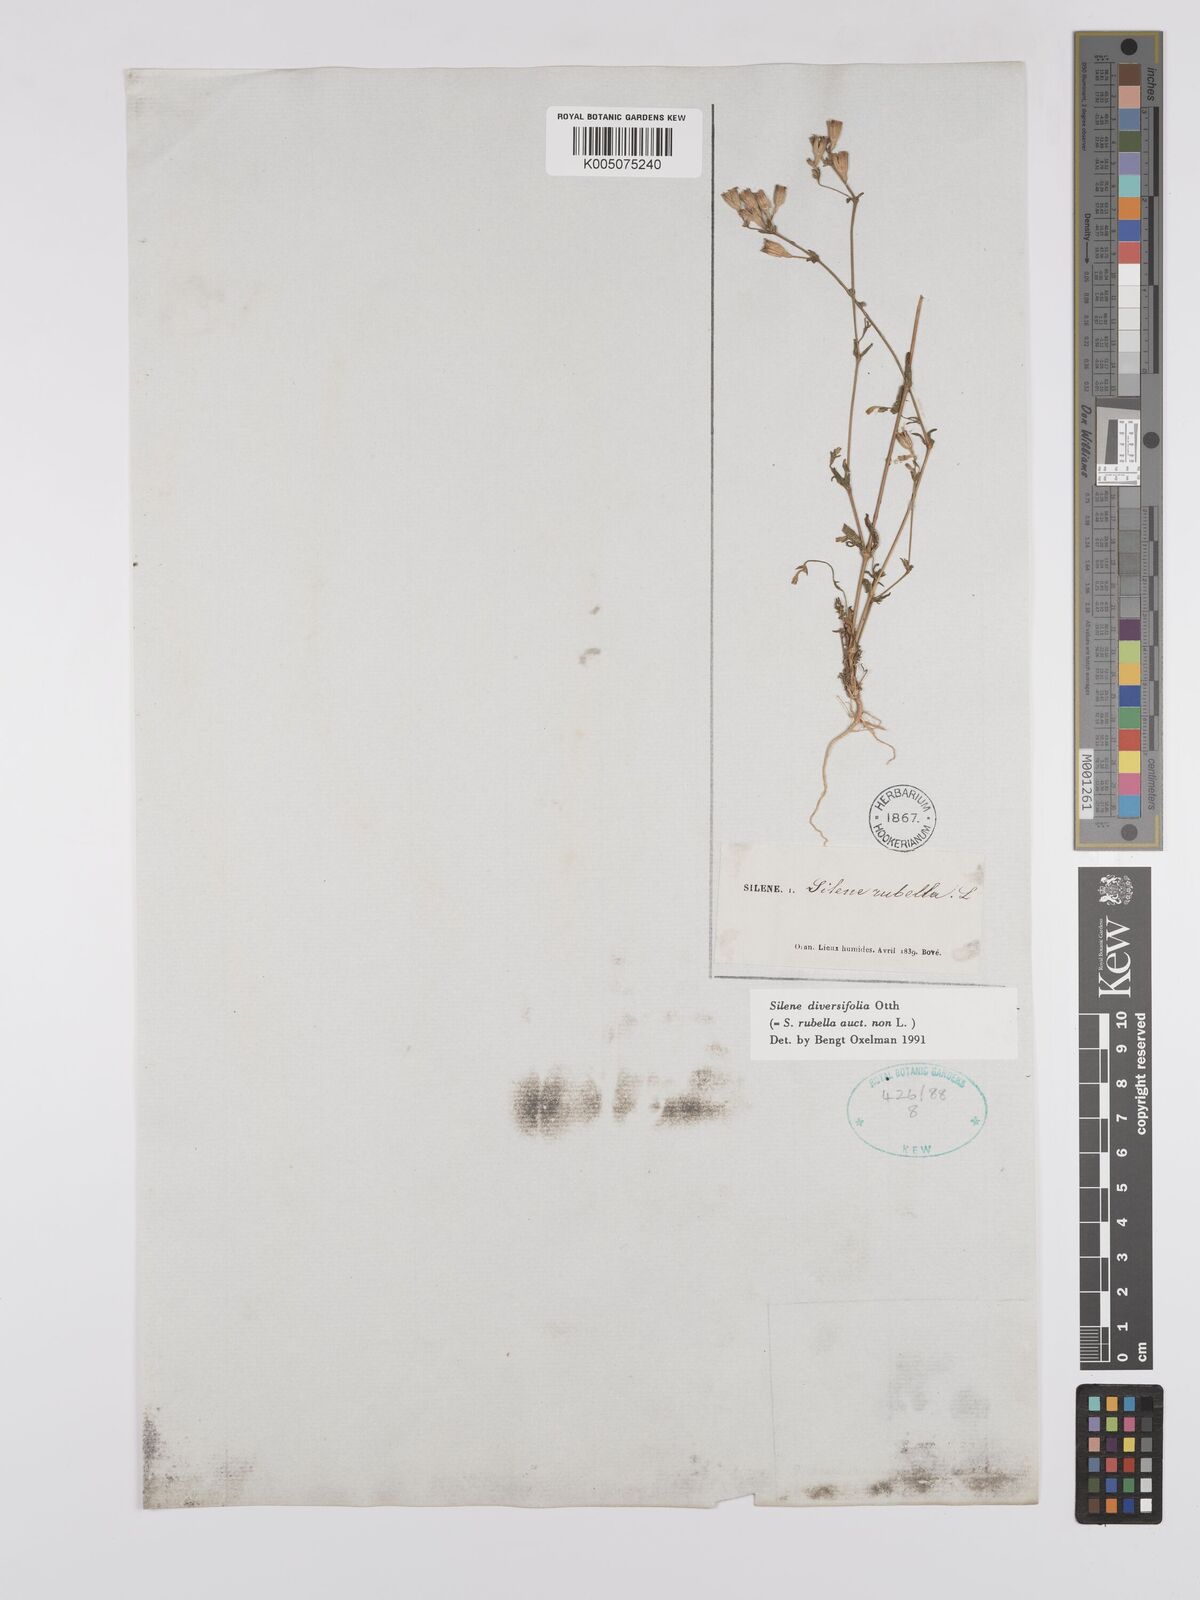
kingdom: Plantae
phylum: Tracheophyta
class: Magnoliopsida
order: Caryophyllales
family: Caryophyllaceae
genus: Silene
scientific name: Silene rubella
